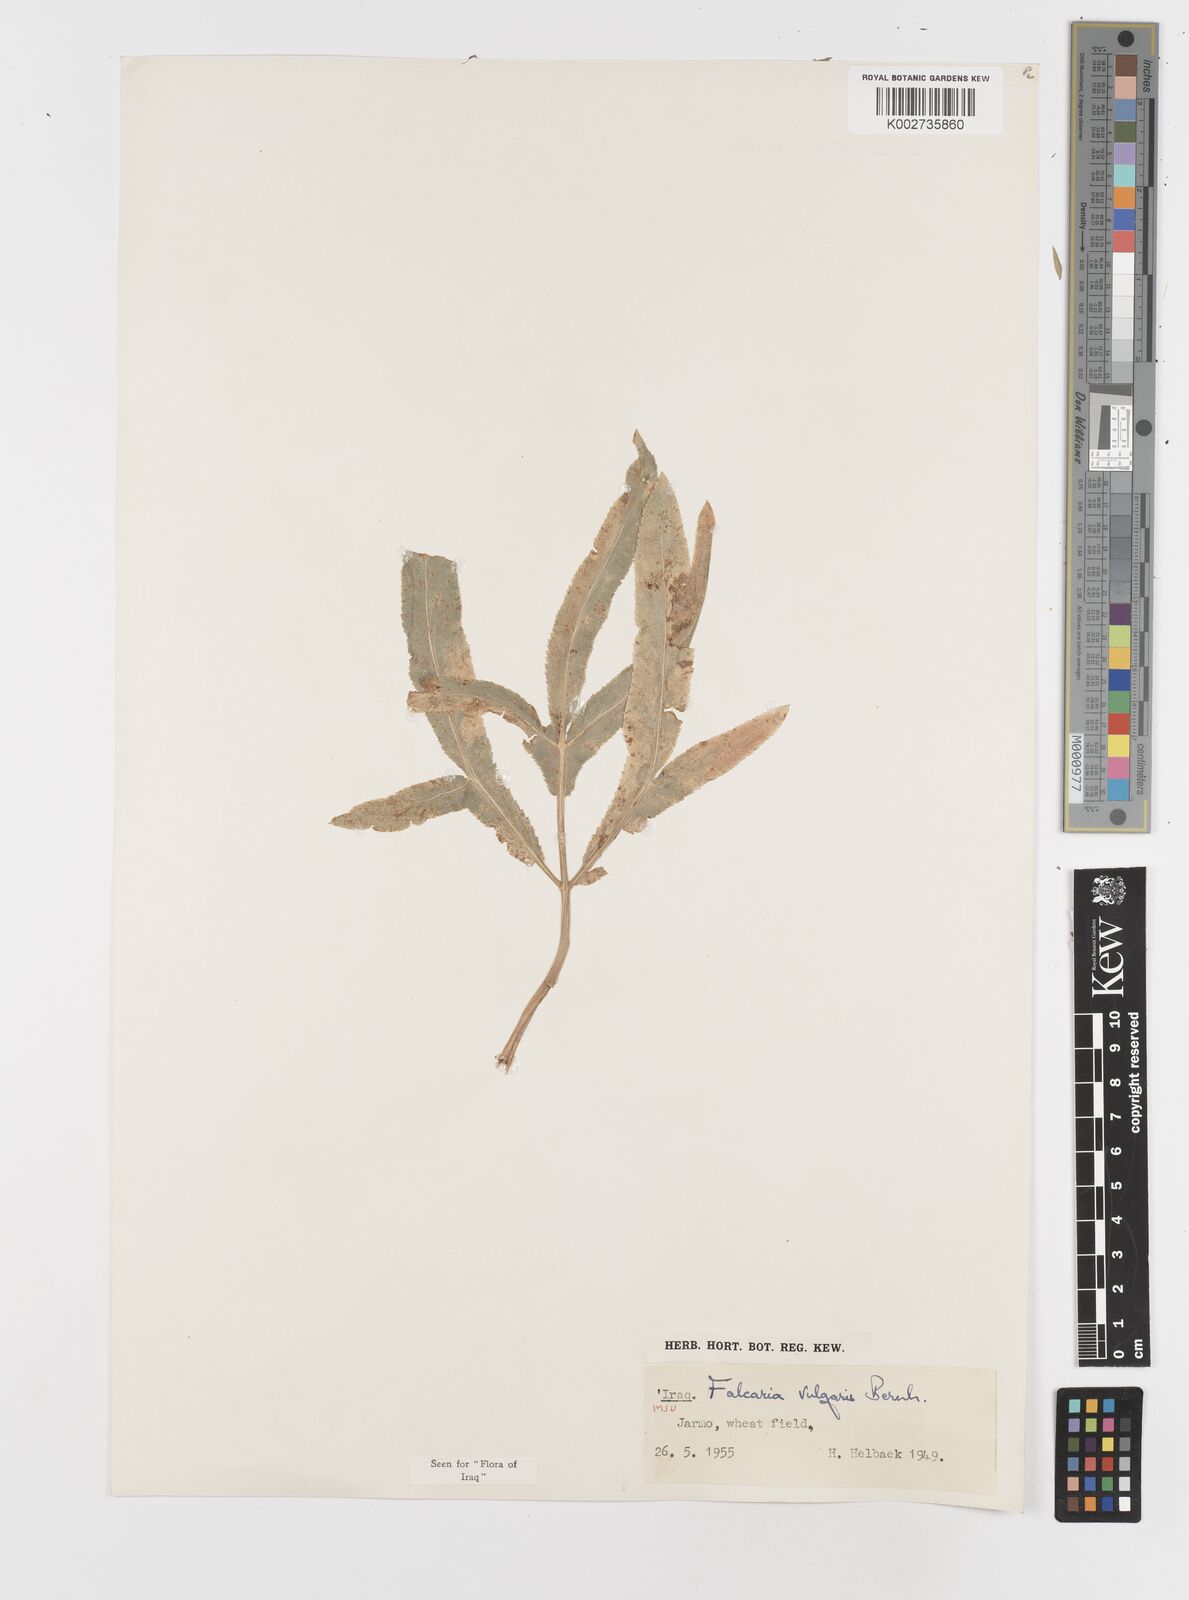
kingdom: Plantae
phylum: Tracheophyta
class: Magnoliopsida
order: Apiales
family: Apiaceae
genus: Falcaria
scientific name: Falcaria vulgaris
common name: Longleaf
